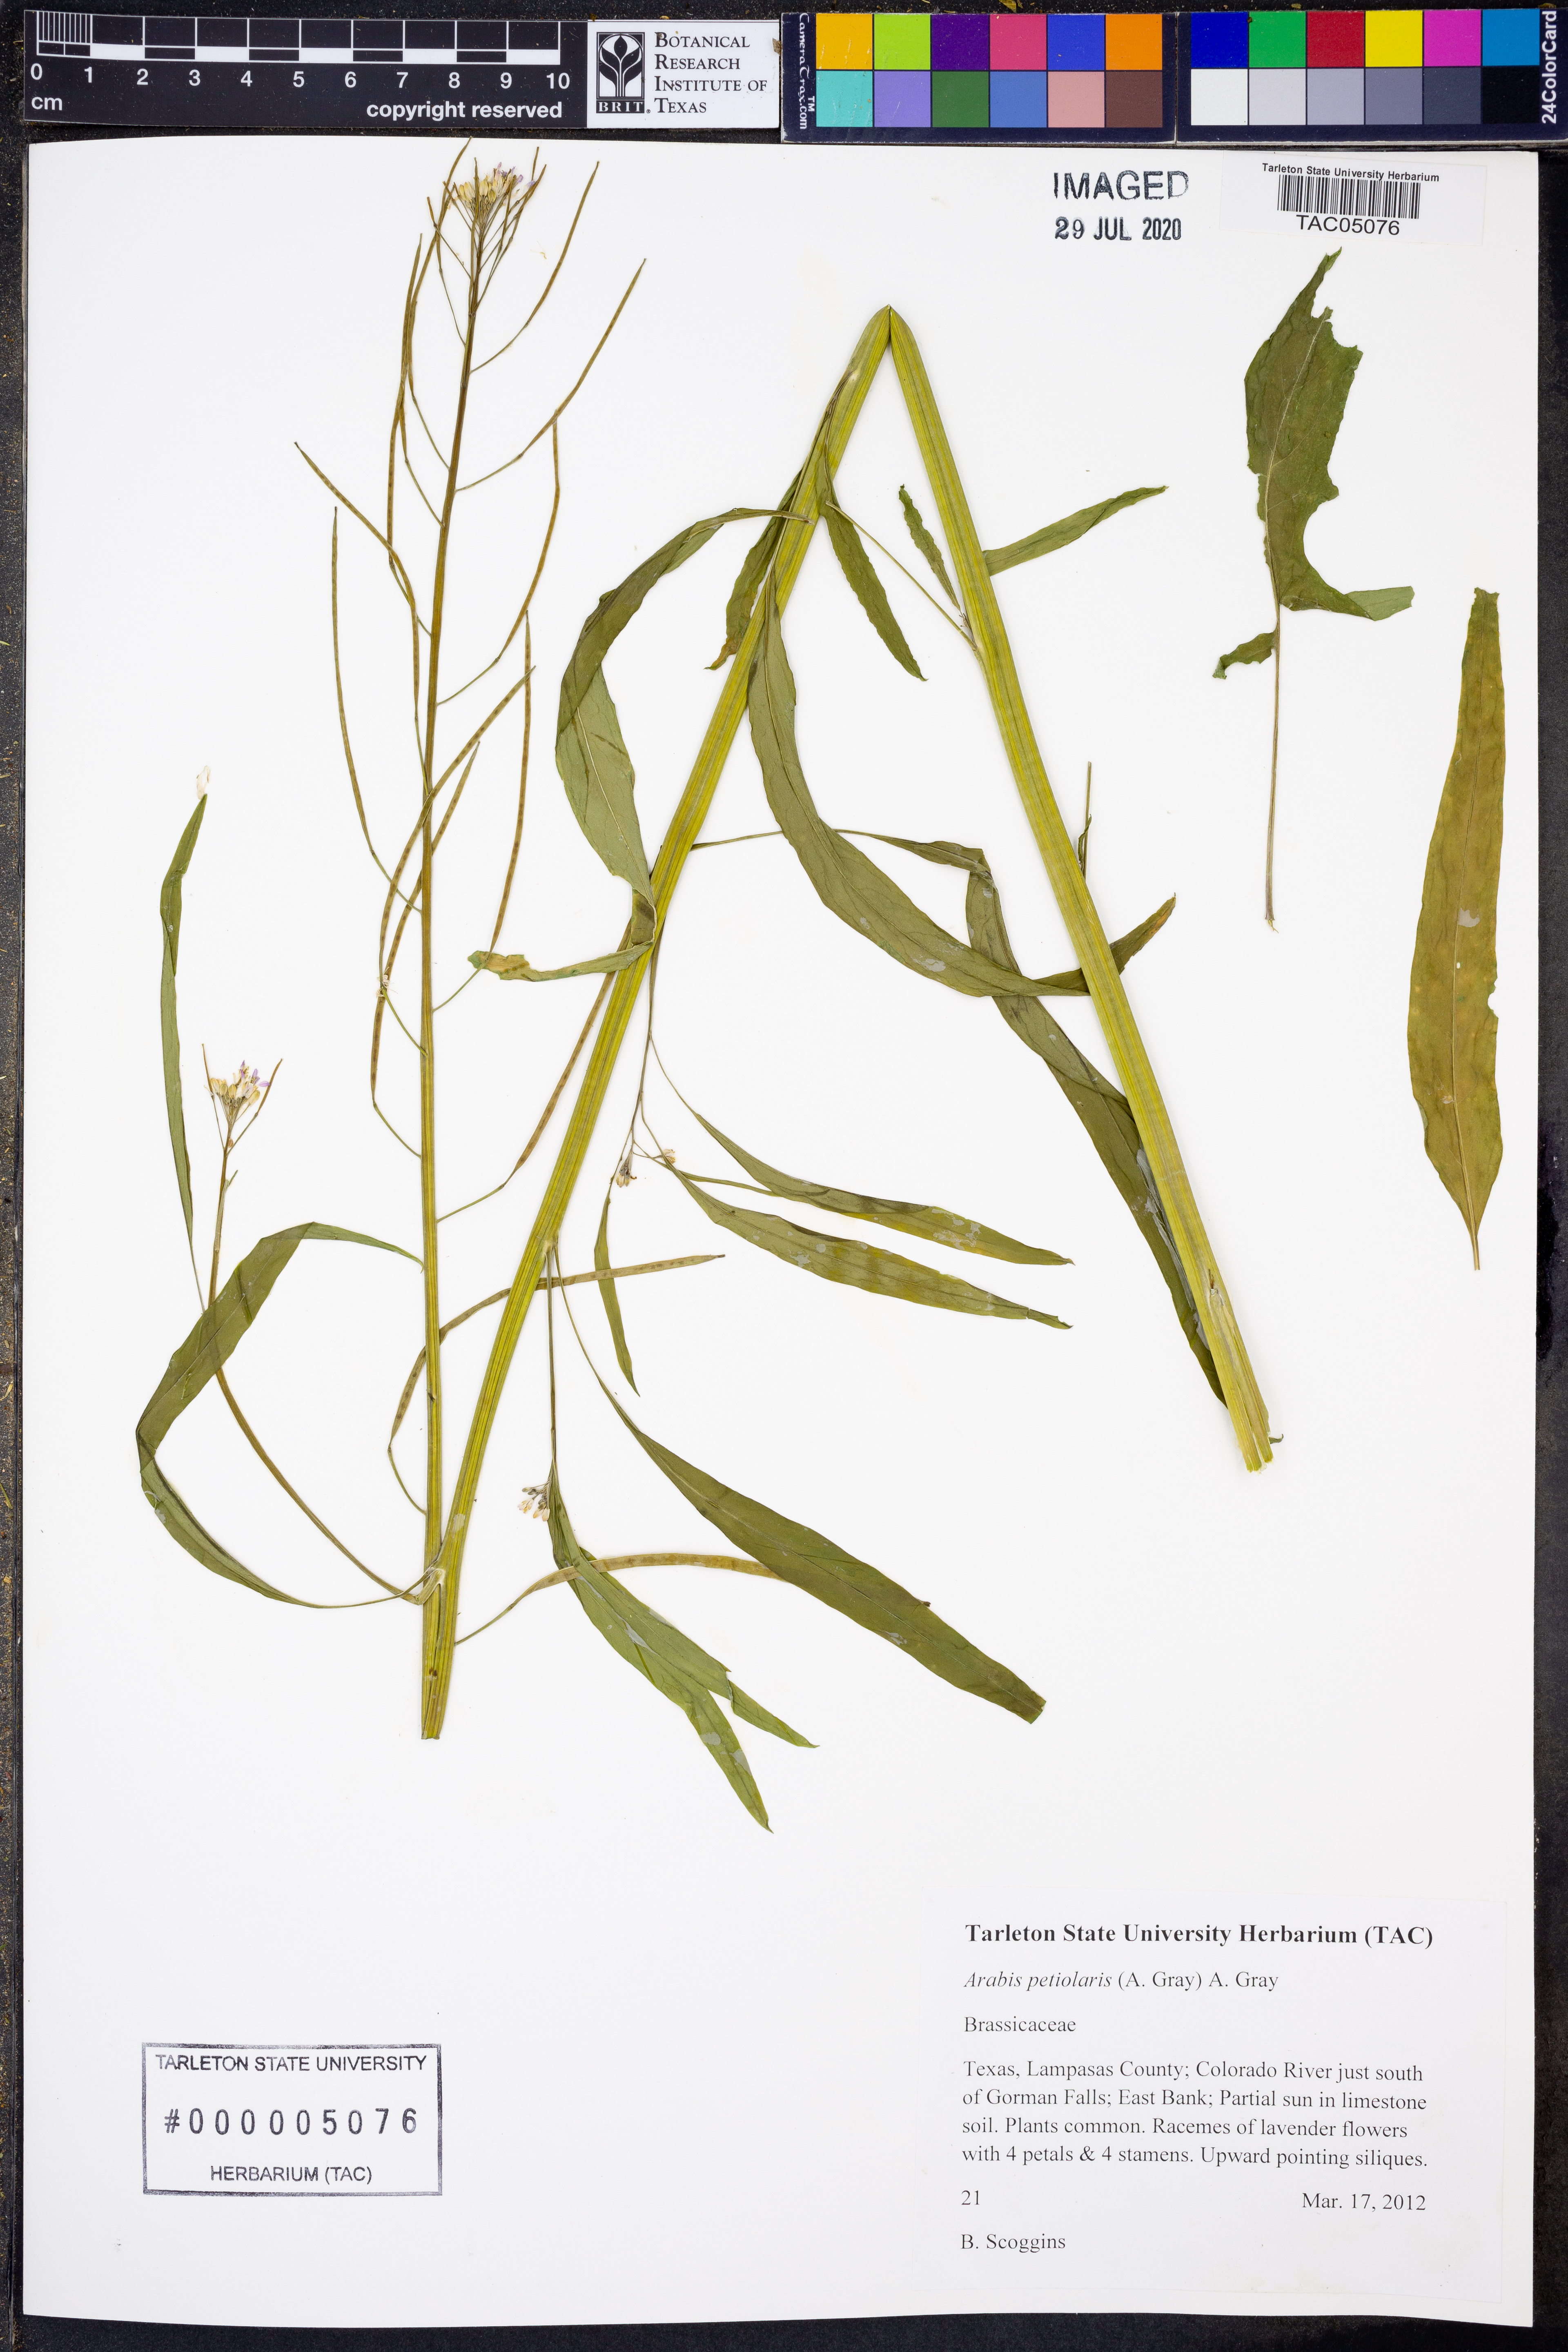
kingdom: Plantae
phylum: Tracheophyta
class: Magnoliopsida
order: Brassicales
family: Brassicaceae
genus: Streptanthus
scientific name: Streptanthus petiolaris
